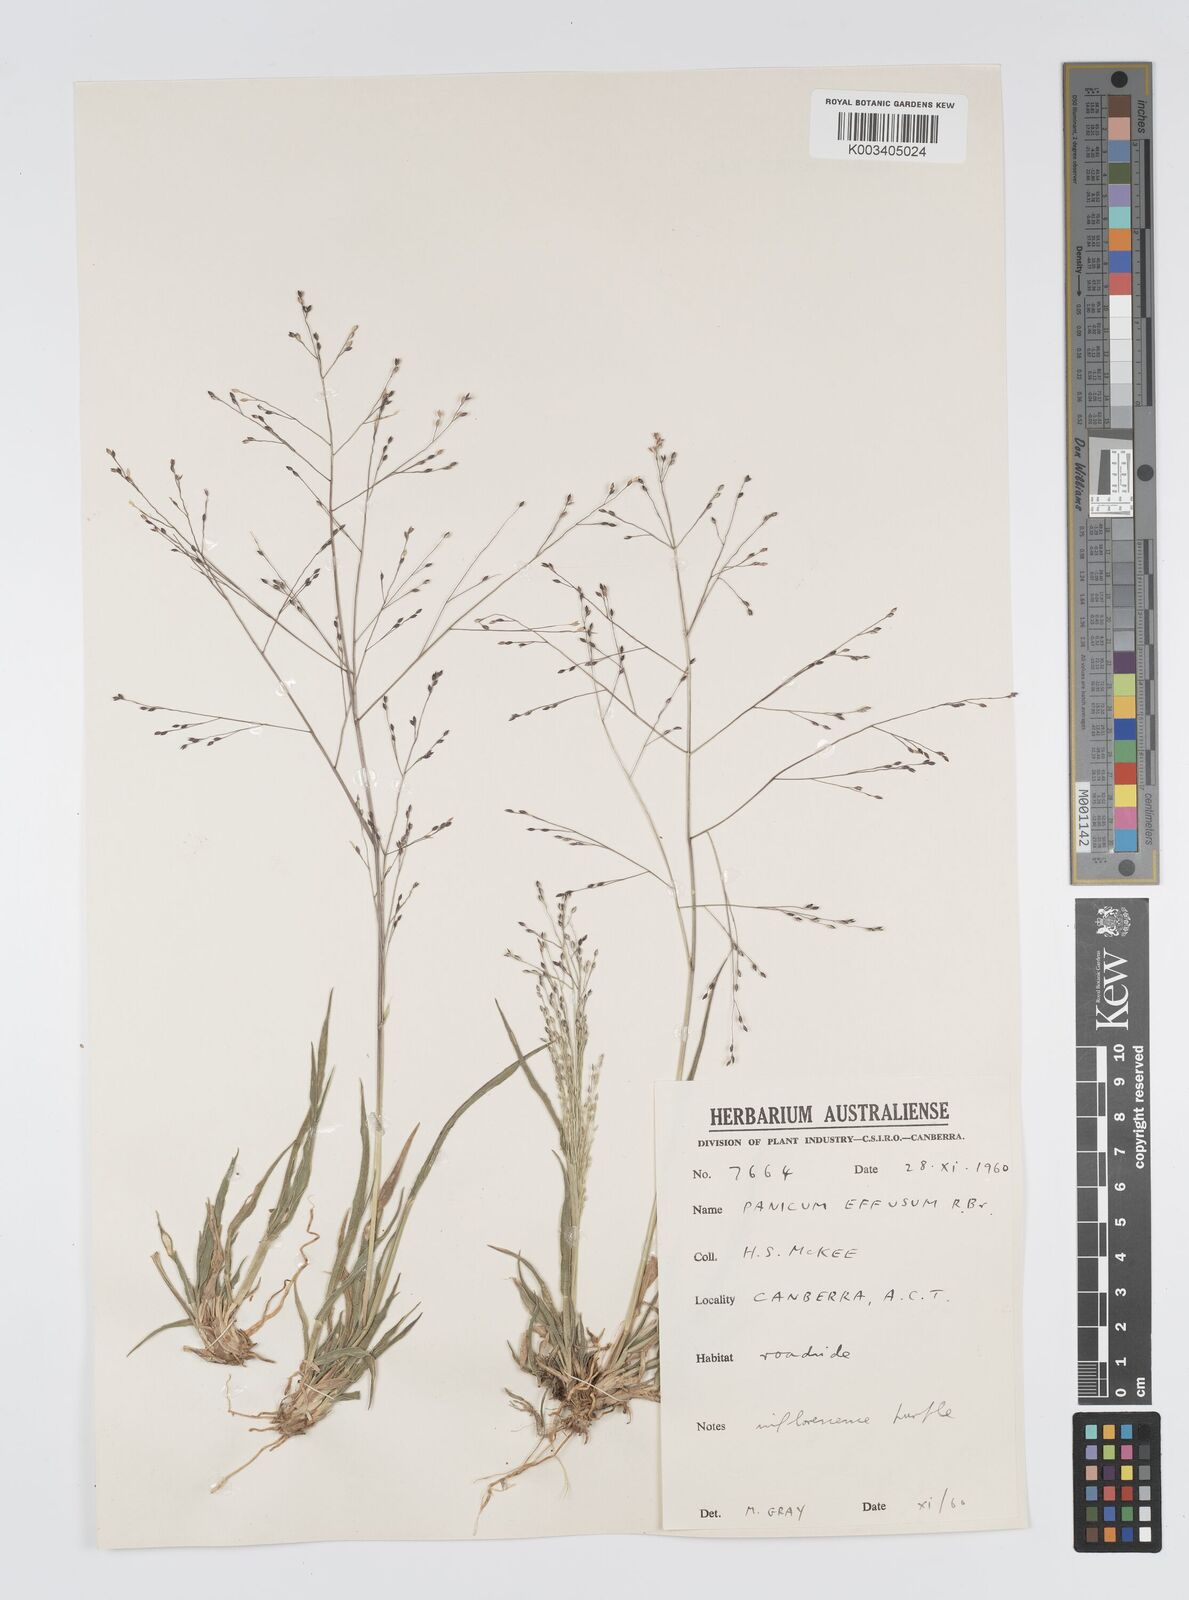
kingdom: Plantae
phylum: Tracheophyta
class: Liliopsida
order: Poales
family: Poaceae
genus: Panicum
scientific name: Panicum effusum
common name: Hairy panic grass
